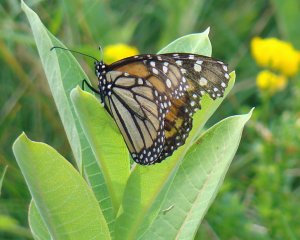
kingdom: Animalia
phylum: Arthropoda
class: Insecta
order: Lepidoptera
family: Nymphalidae
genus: Danaus
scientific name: Danaus plexippus
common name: Monarch
